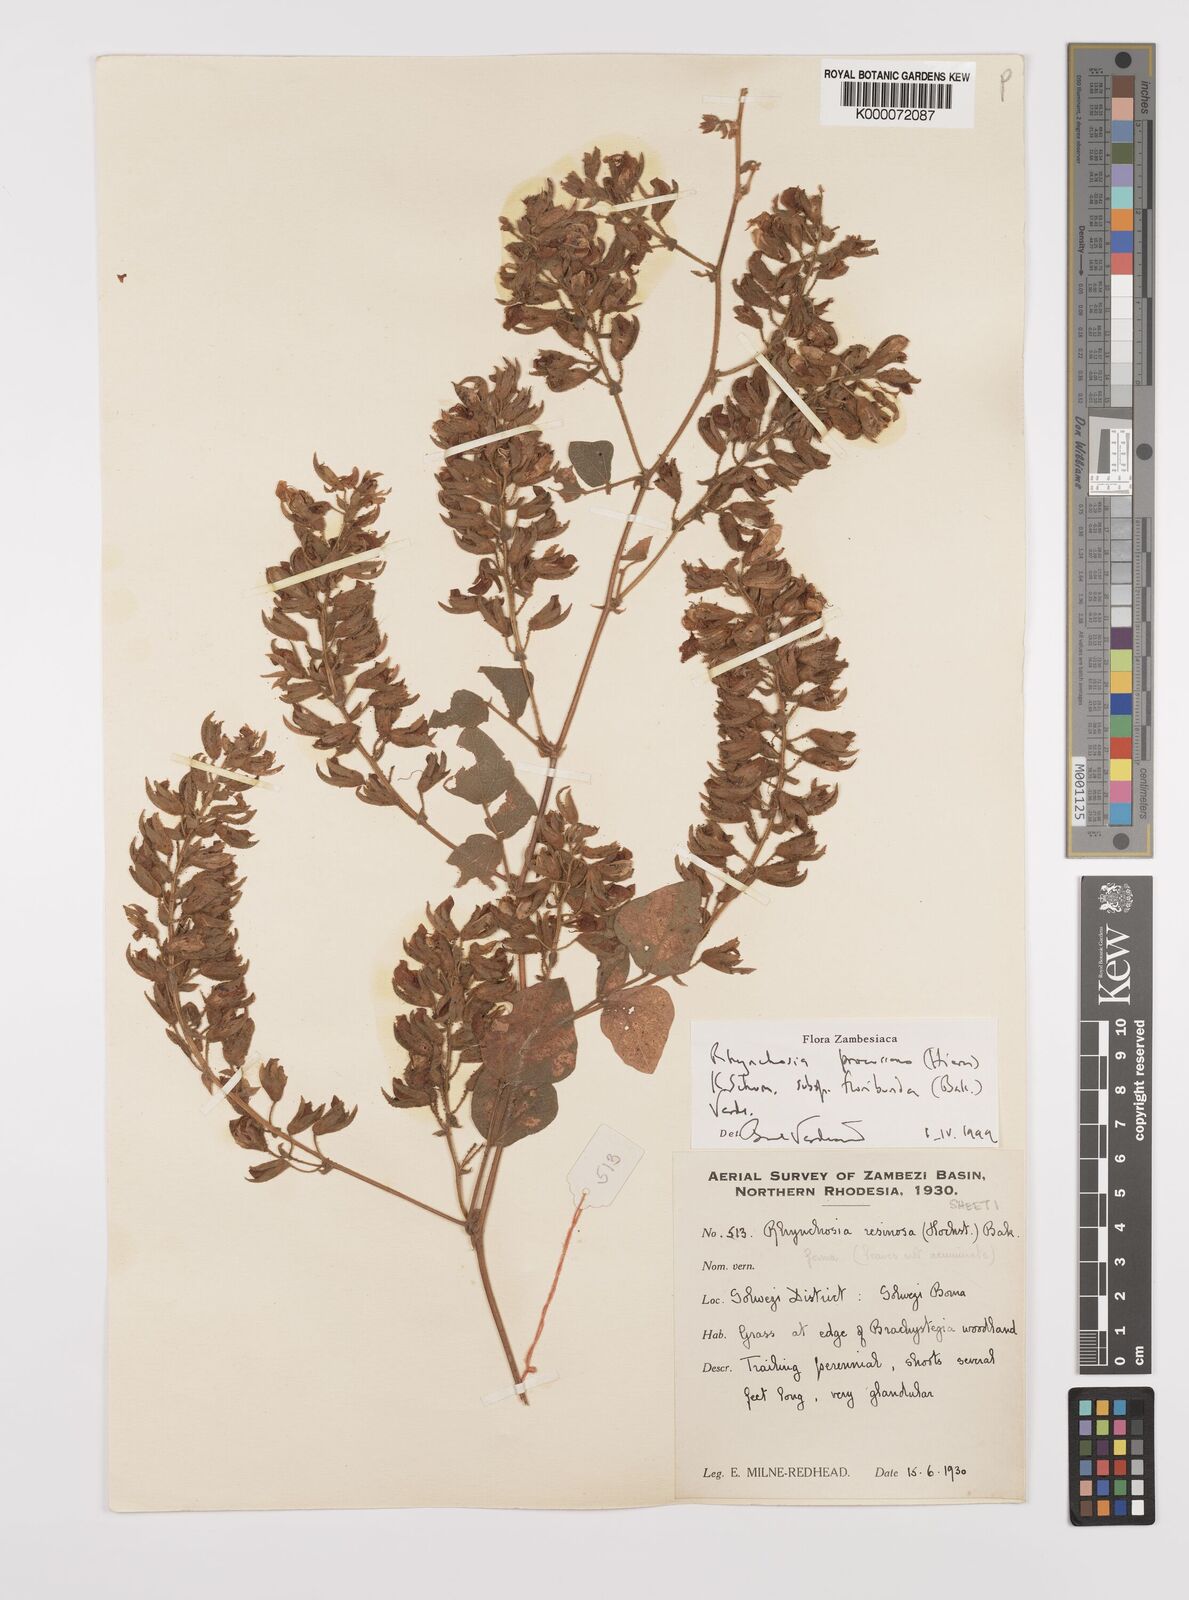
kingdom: Plantae
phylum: Tracheophyta
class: Magnoliopsida
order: Fabales
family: Fabaceae
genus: Rhynchosia
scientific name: Rhynchosia procurrens
